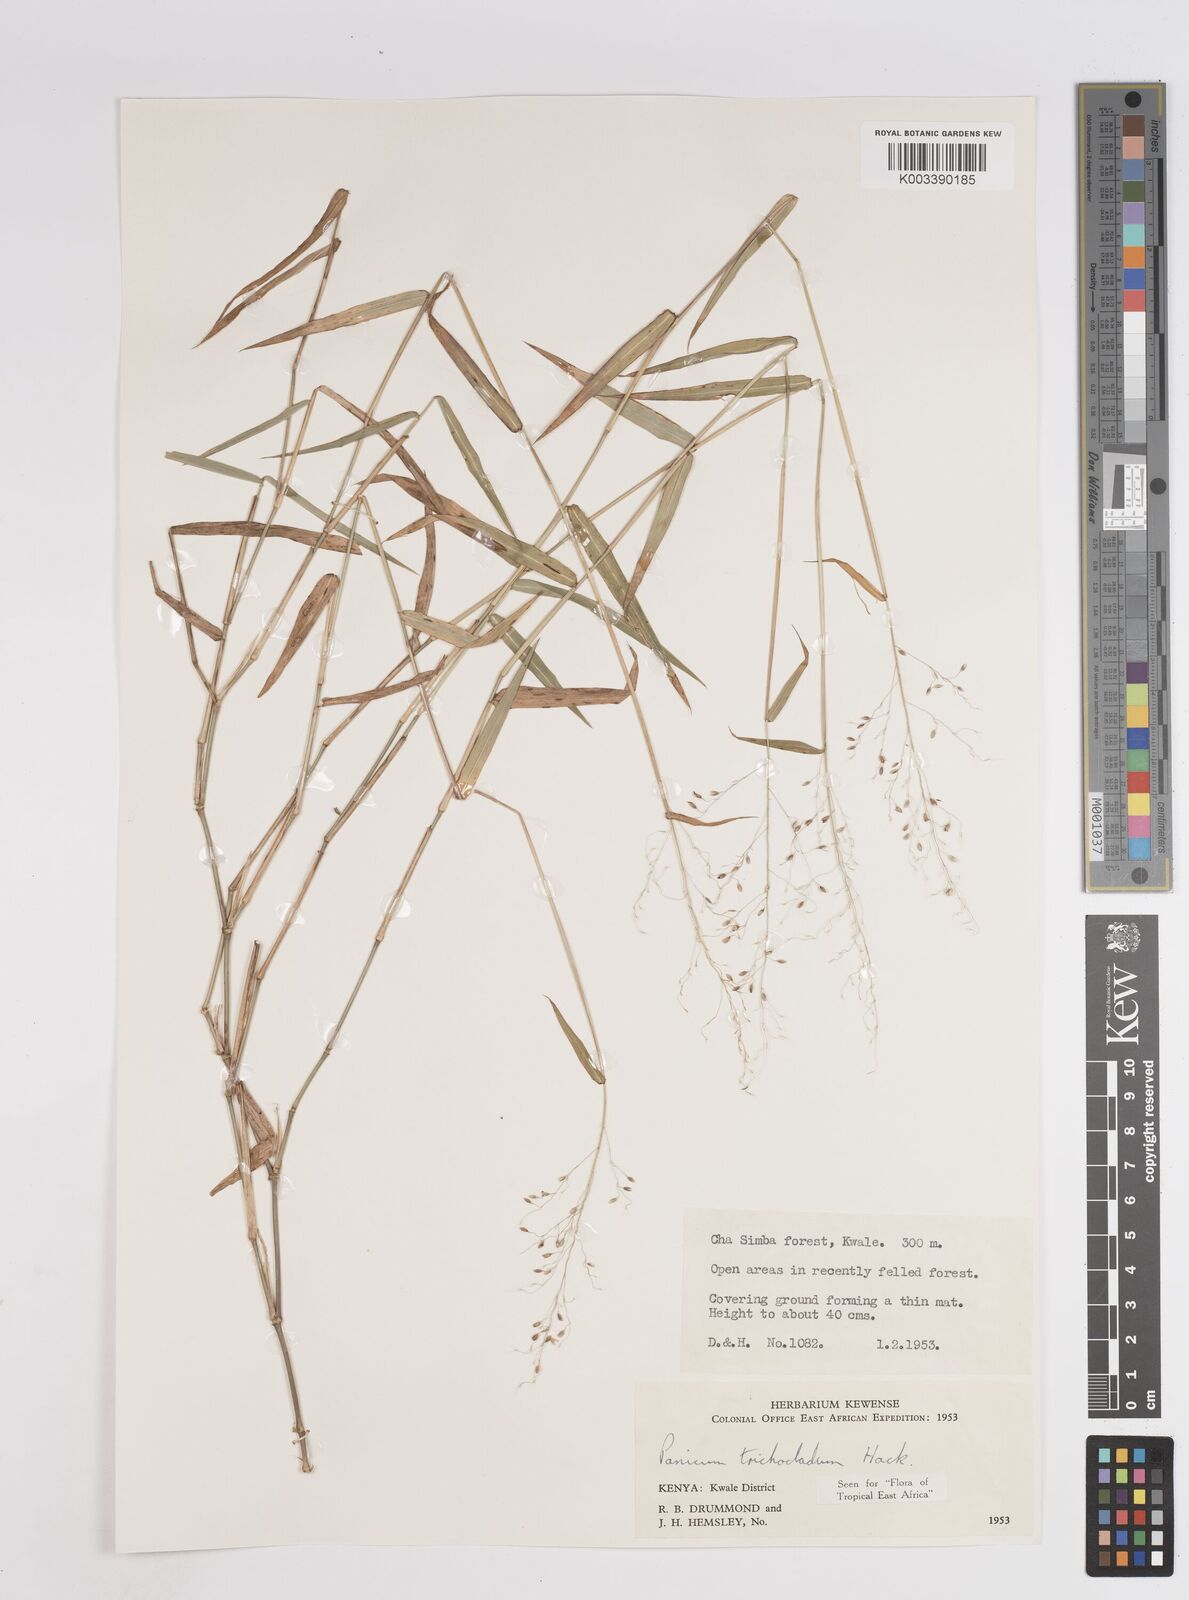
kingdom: Plantae
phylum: Tracheophyta
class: Liliopsida
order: Poales
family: Poaceae
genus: Panicum
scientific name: Panicum trichocladum
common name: Donkey grass
